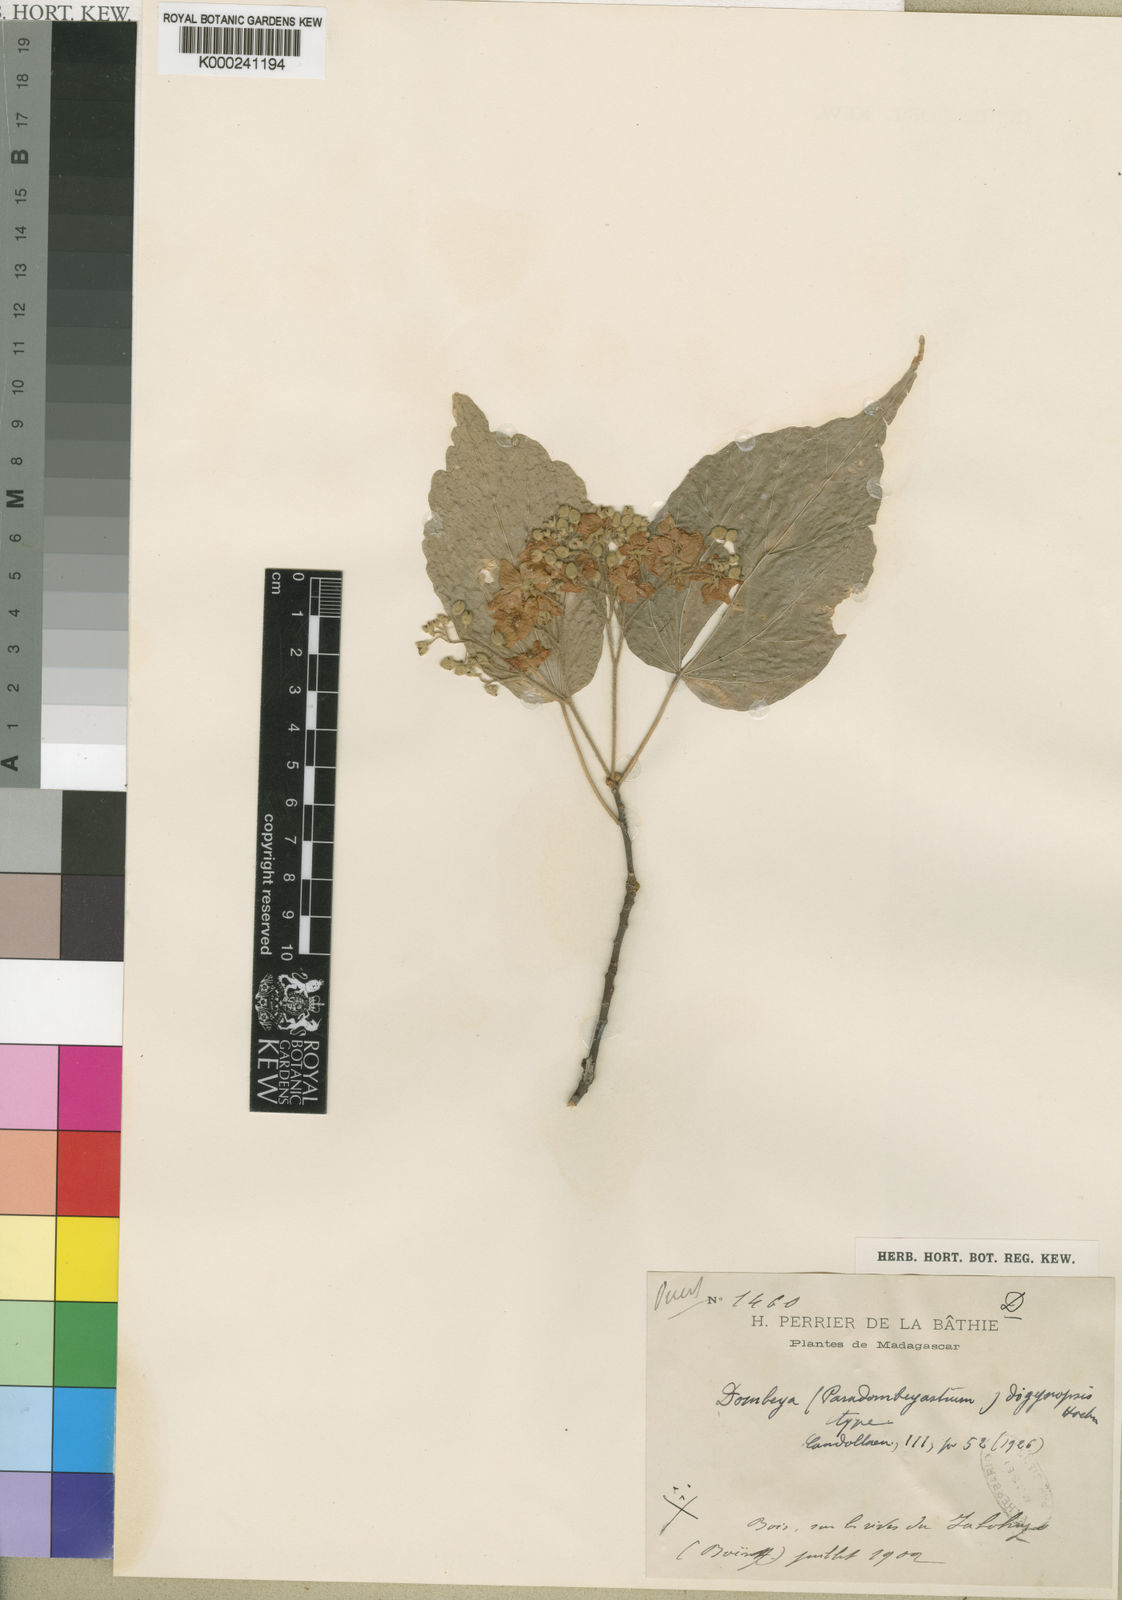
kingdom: Plantae
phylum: Tracheophyta
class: Magnoliopsida
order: Malvales
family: Malvaceae
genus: Dombeya
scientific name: Dombeya digynopsis
